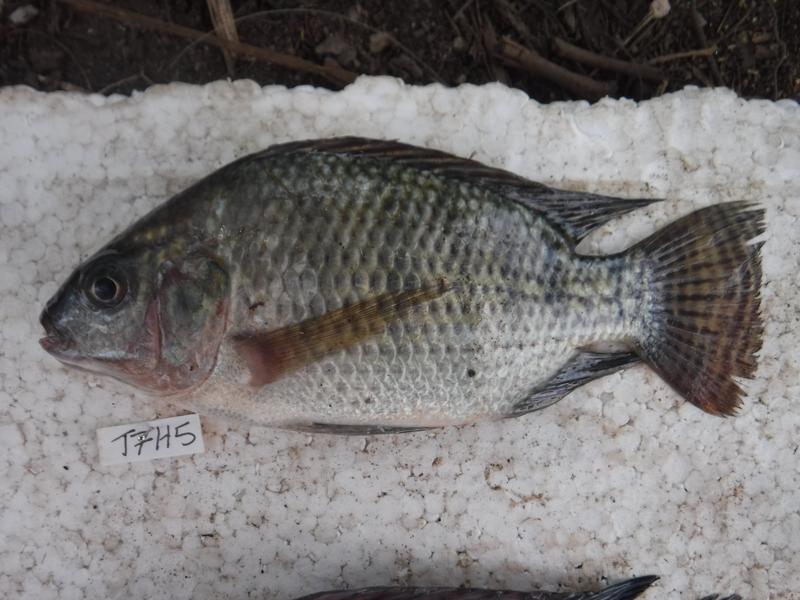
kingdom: Animalia
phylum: Chordata
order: Perciformes
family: Cichlidae
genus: Oreochromis
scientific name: Oreochromis niloticus
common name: Nile tilapia
